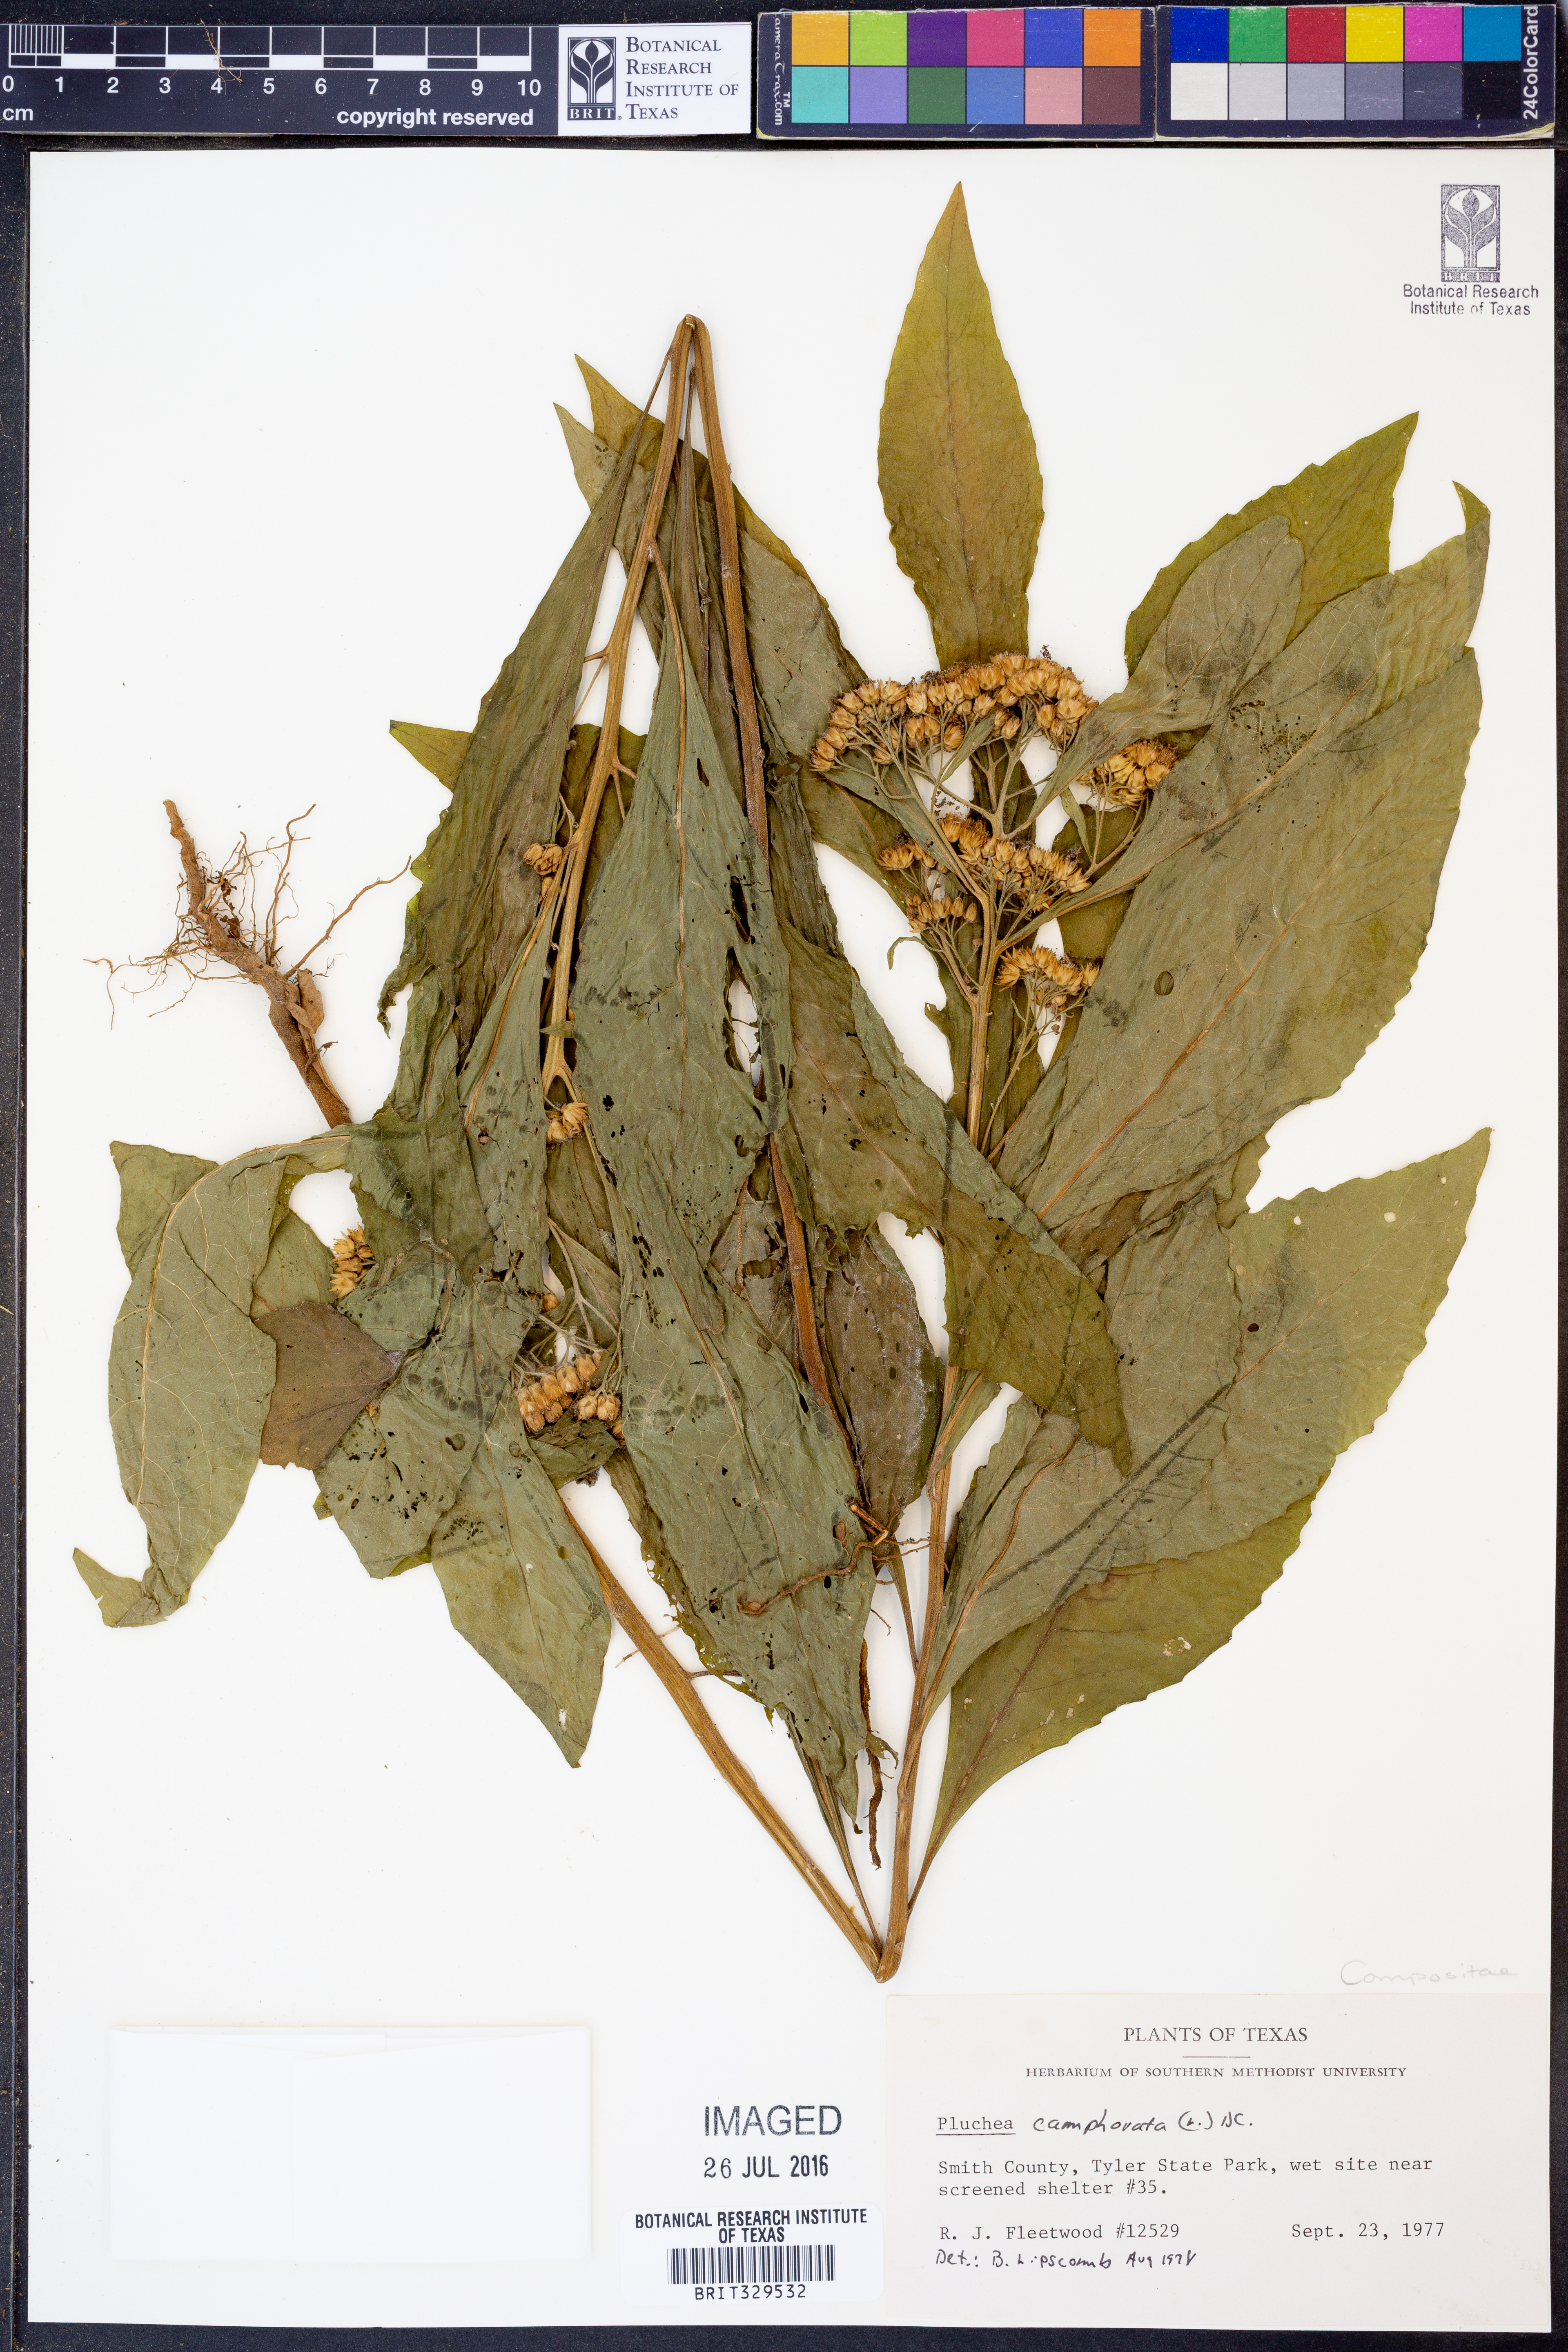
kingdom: Plantae
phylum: Tracheophyta
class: Magnoliopsida
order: Asterales
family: Asteraceae
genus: Pluchea
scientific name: Pluchea camphorata
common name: Camphor pluchea
